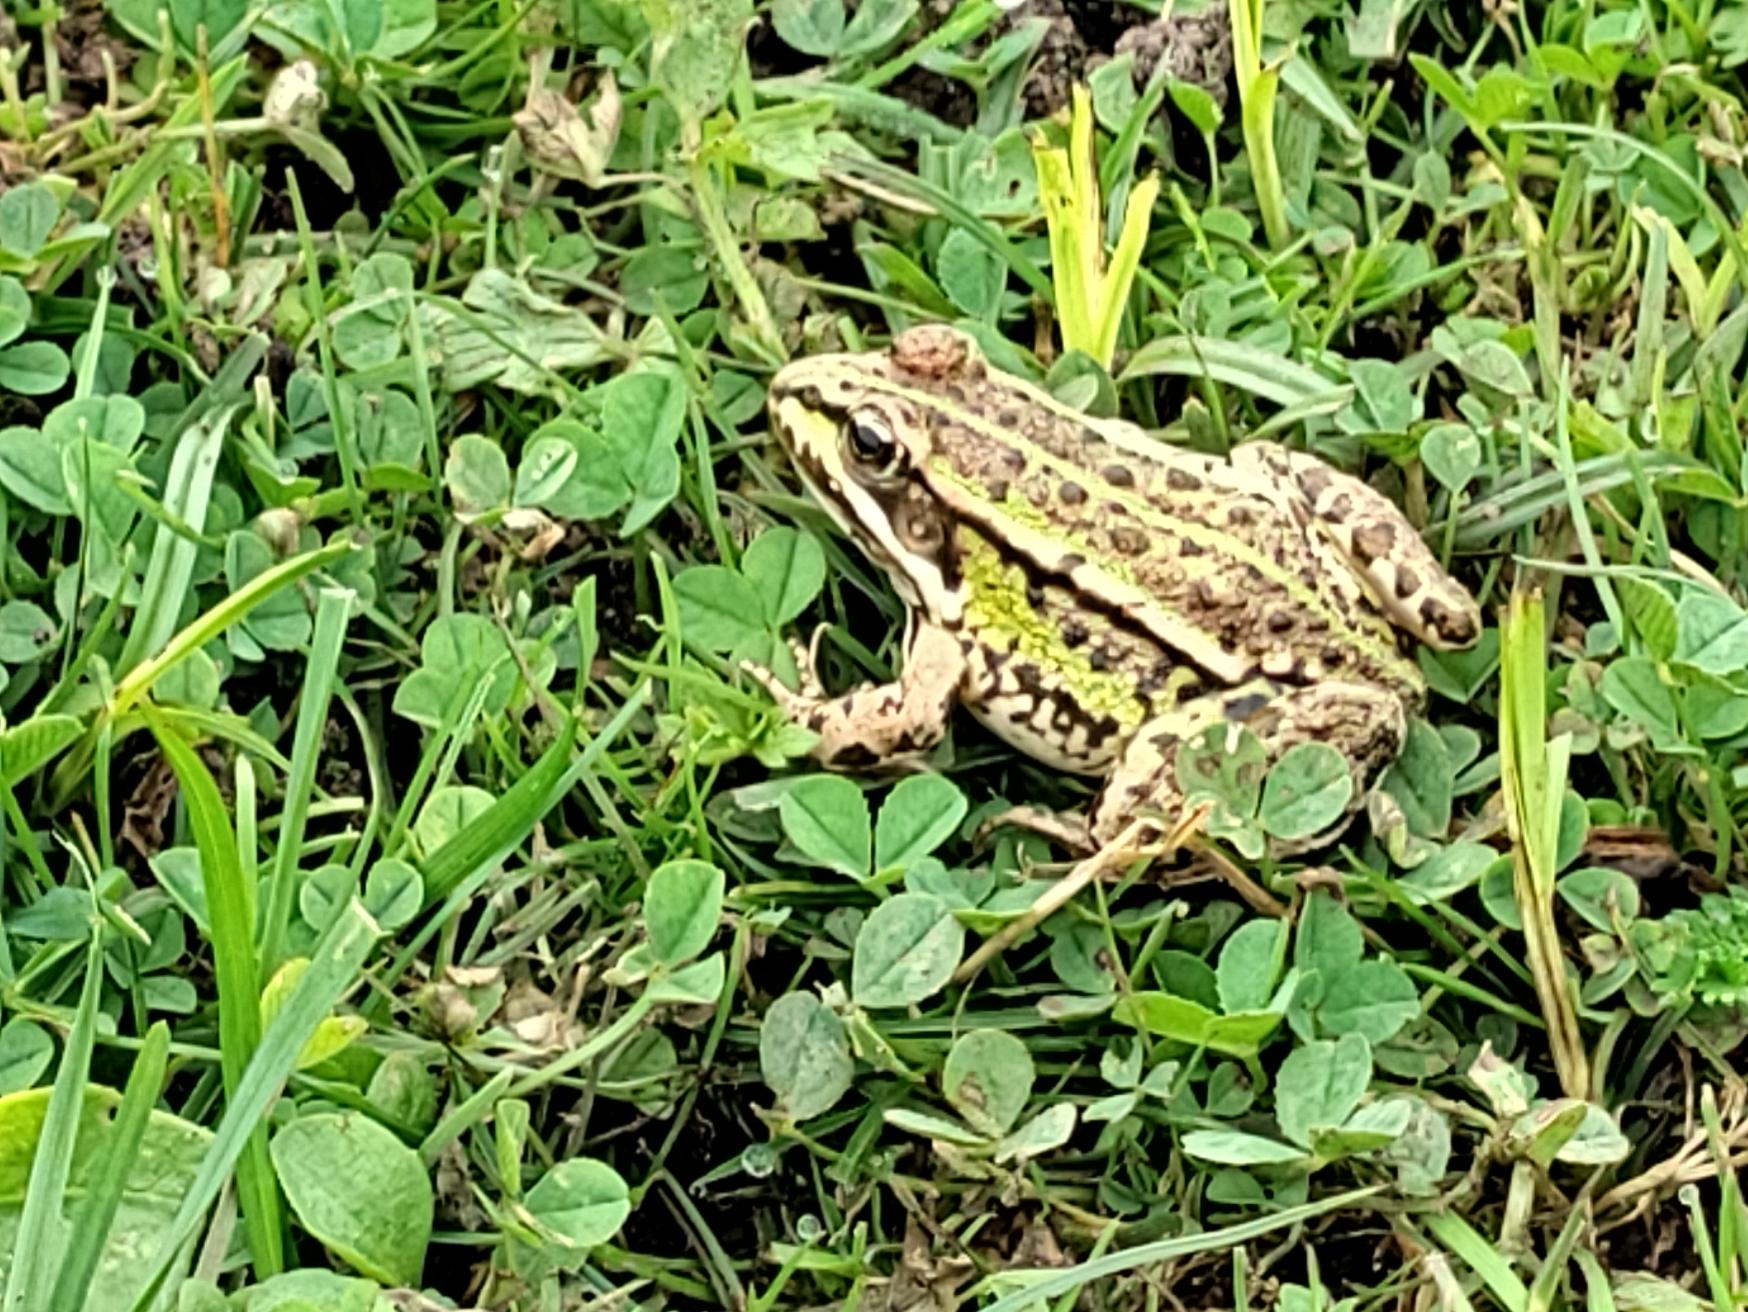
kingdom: Animalia
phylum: Chordata
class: Amphibia
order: Anura
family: Ranidae
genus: Pelophylax
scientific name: Pelophylax lessonae
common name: Grøn frø
